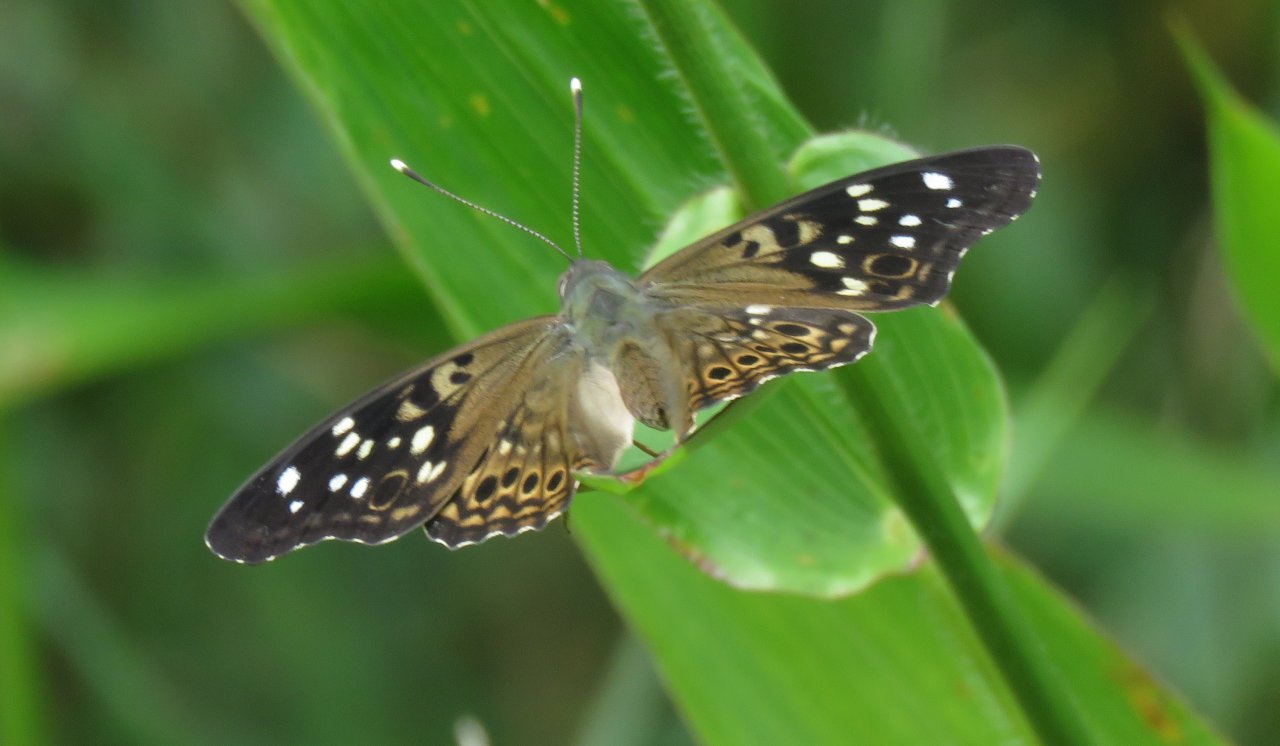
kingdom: Animalia
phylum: Arthropoda
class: Insecta
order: Lepidoptera
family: Nymphalidae
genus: Asterocampa
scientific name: Asterocampa celtis
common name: Hackberry Emperor
